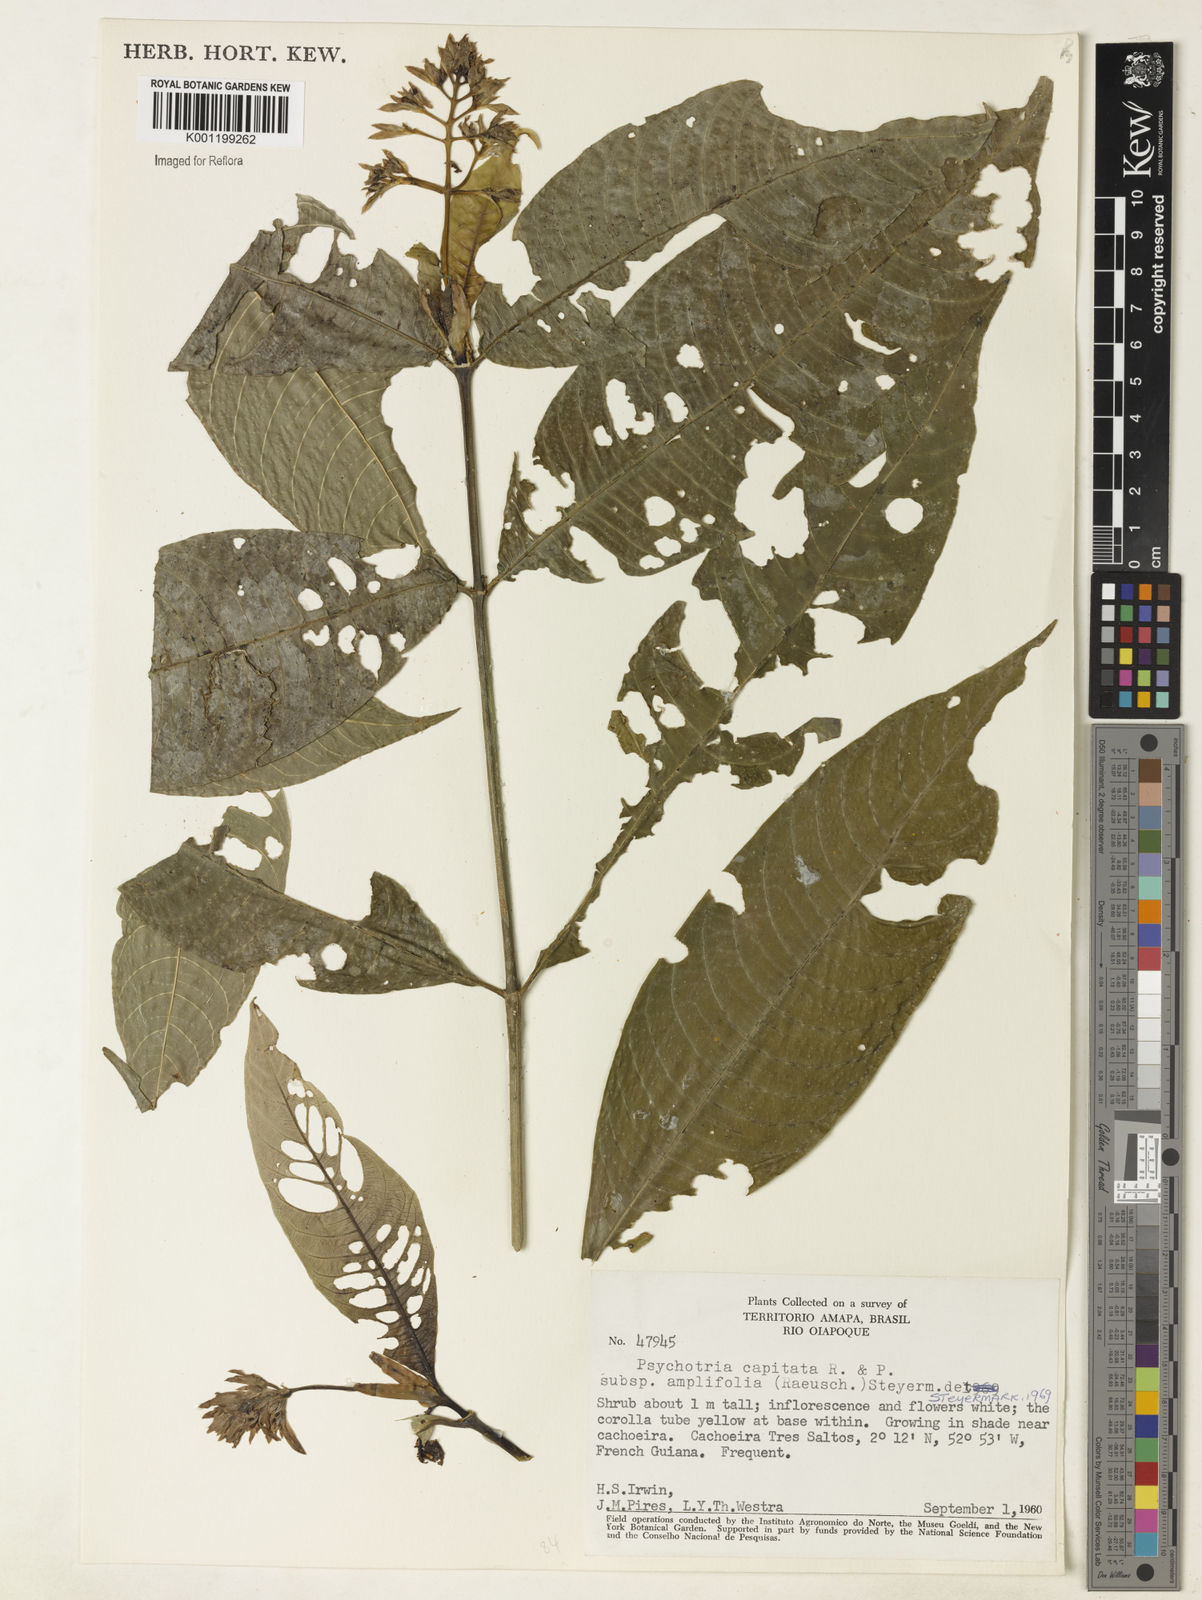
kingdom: Plantae
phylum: Tracheophyta
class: Magnoliopsida
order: Gentianales
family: Rubiaceae
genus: Palicourea
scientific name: Palicourea violacea
